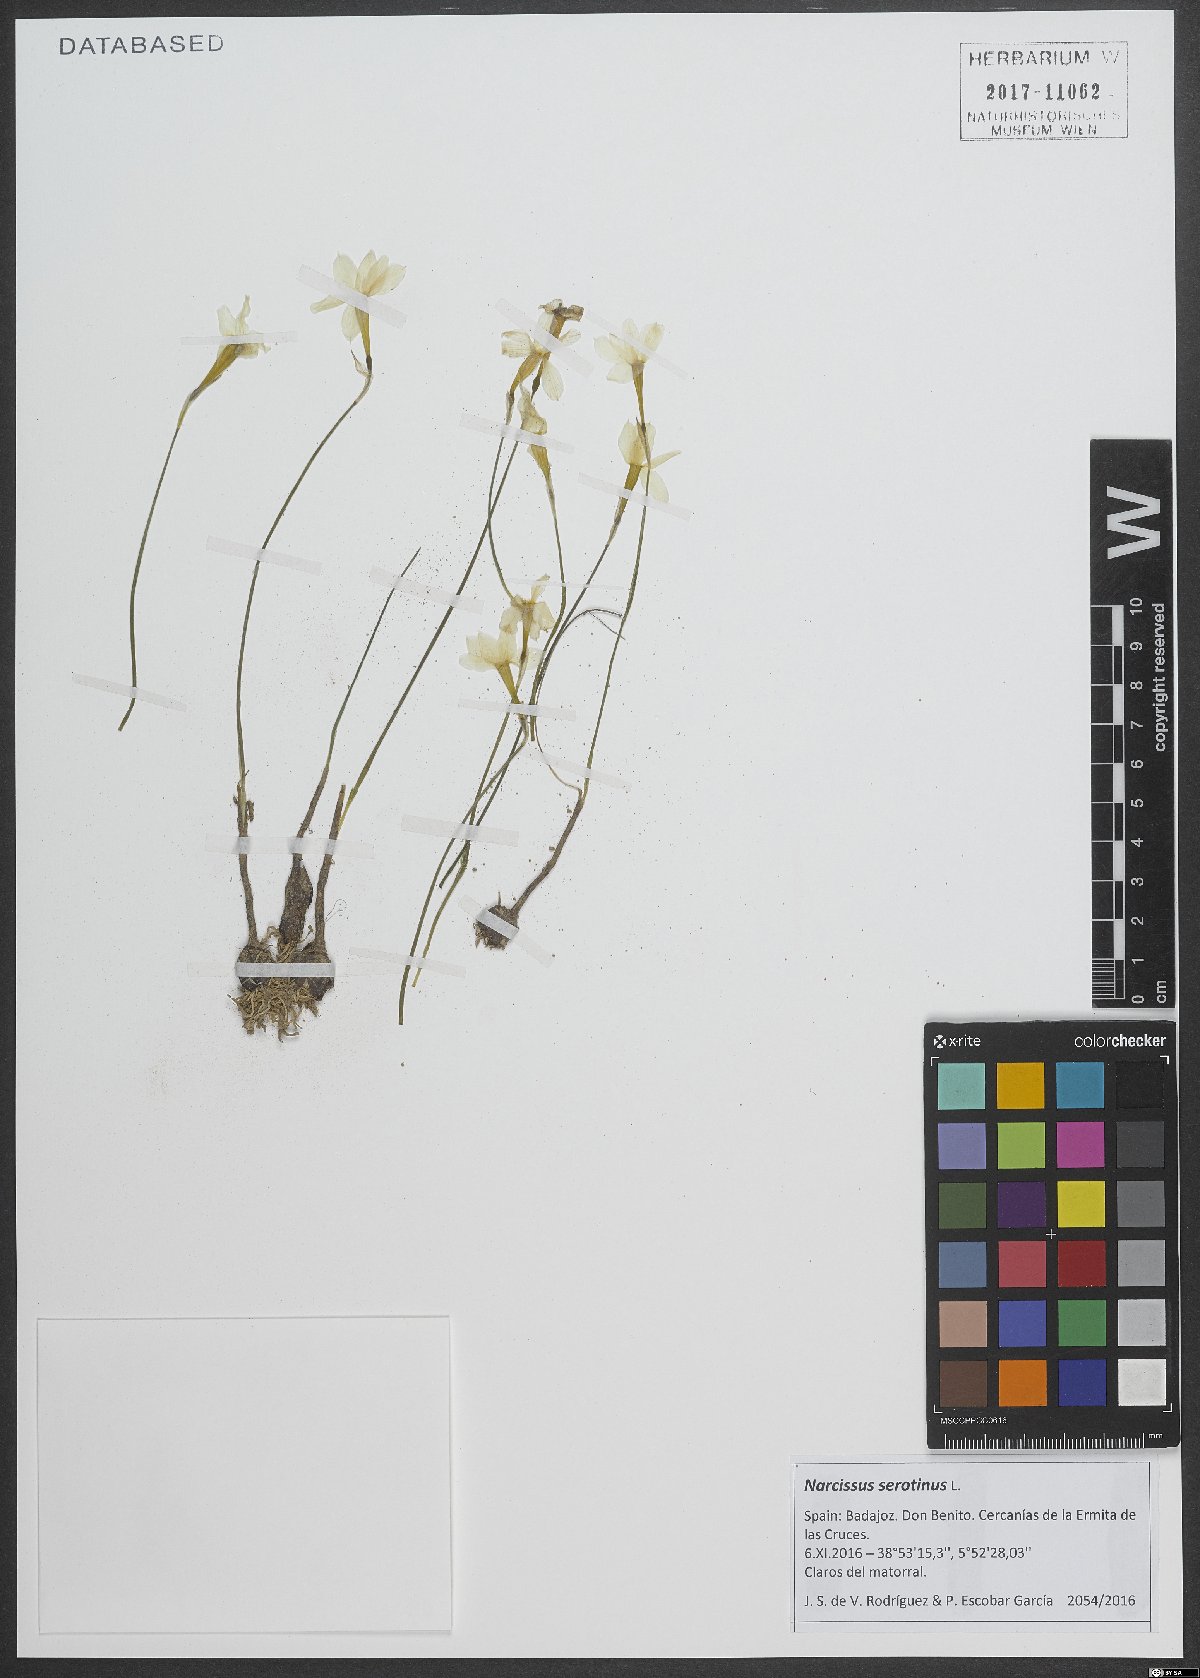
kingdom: Plantae
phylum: Tracheophyta
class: Liliopsida
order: Asparagales
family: Amaryllidaceae
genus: Narcissus
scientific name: Narcissus serotinus
